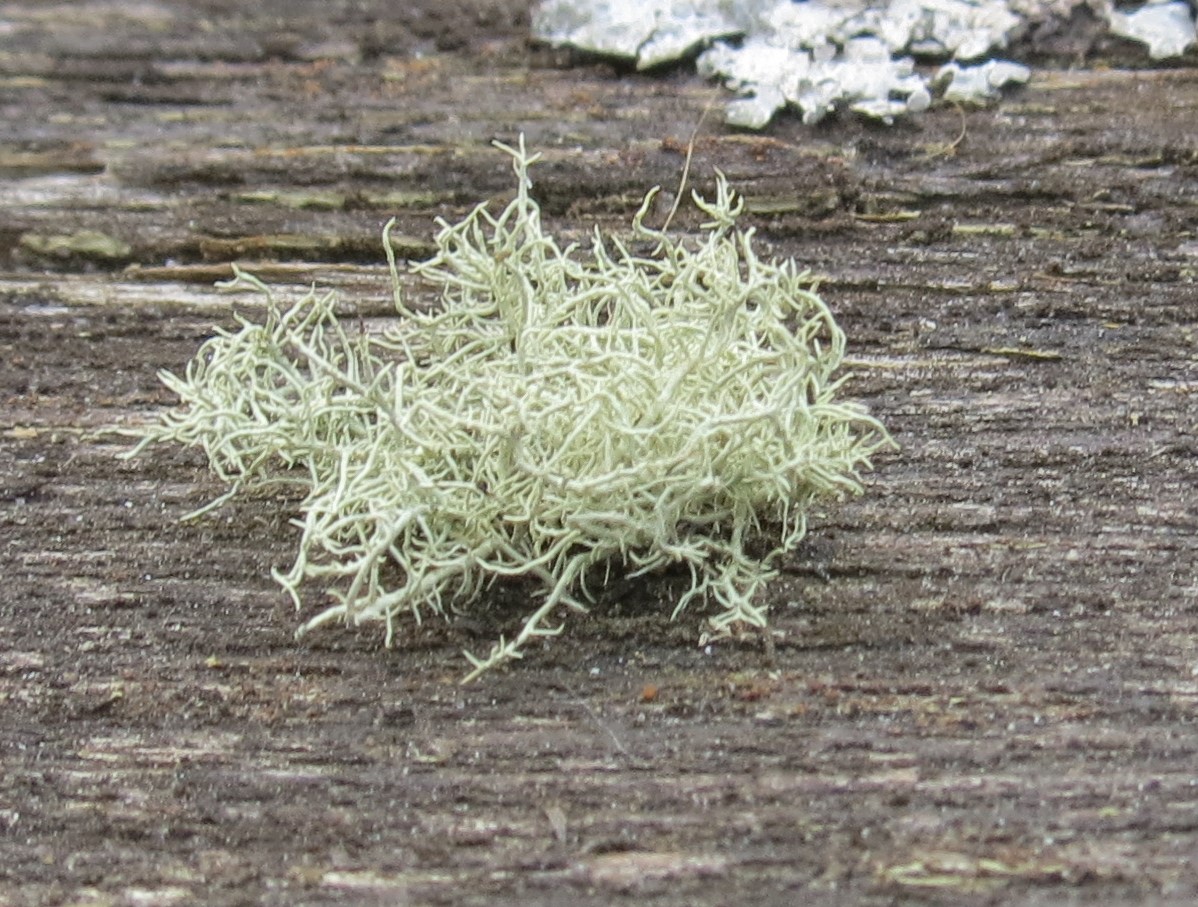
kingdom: Fungi
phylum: Ascomycota
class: Lecanoromycetes
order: Lecanorales
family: Parmeliaceae
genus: Usnea
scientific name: Usnea hirta
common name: liden skæglav
